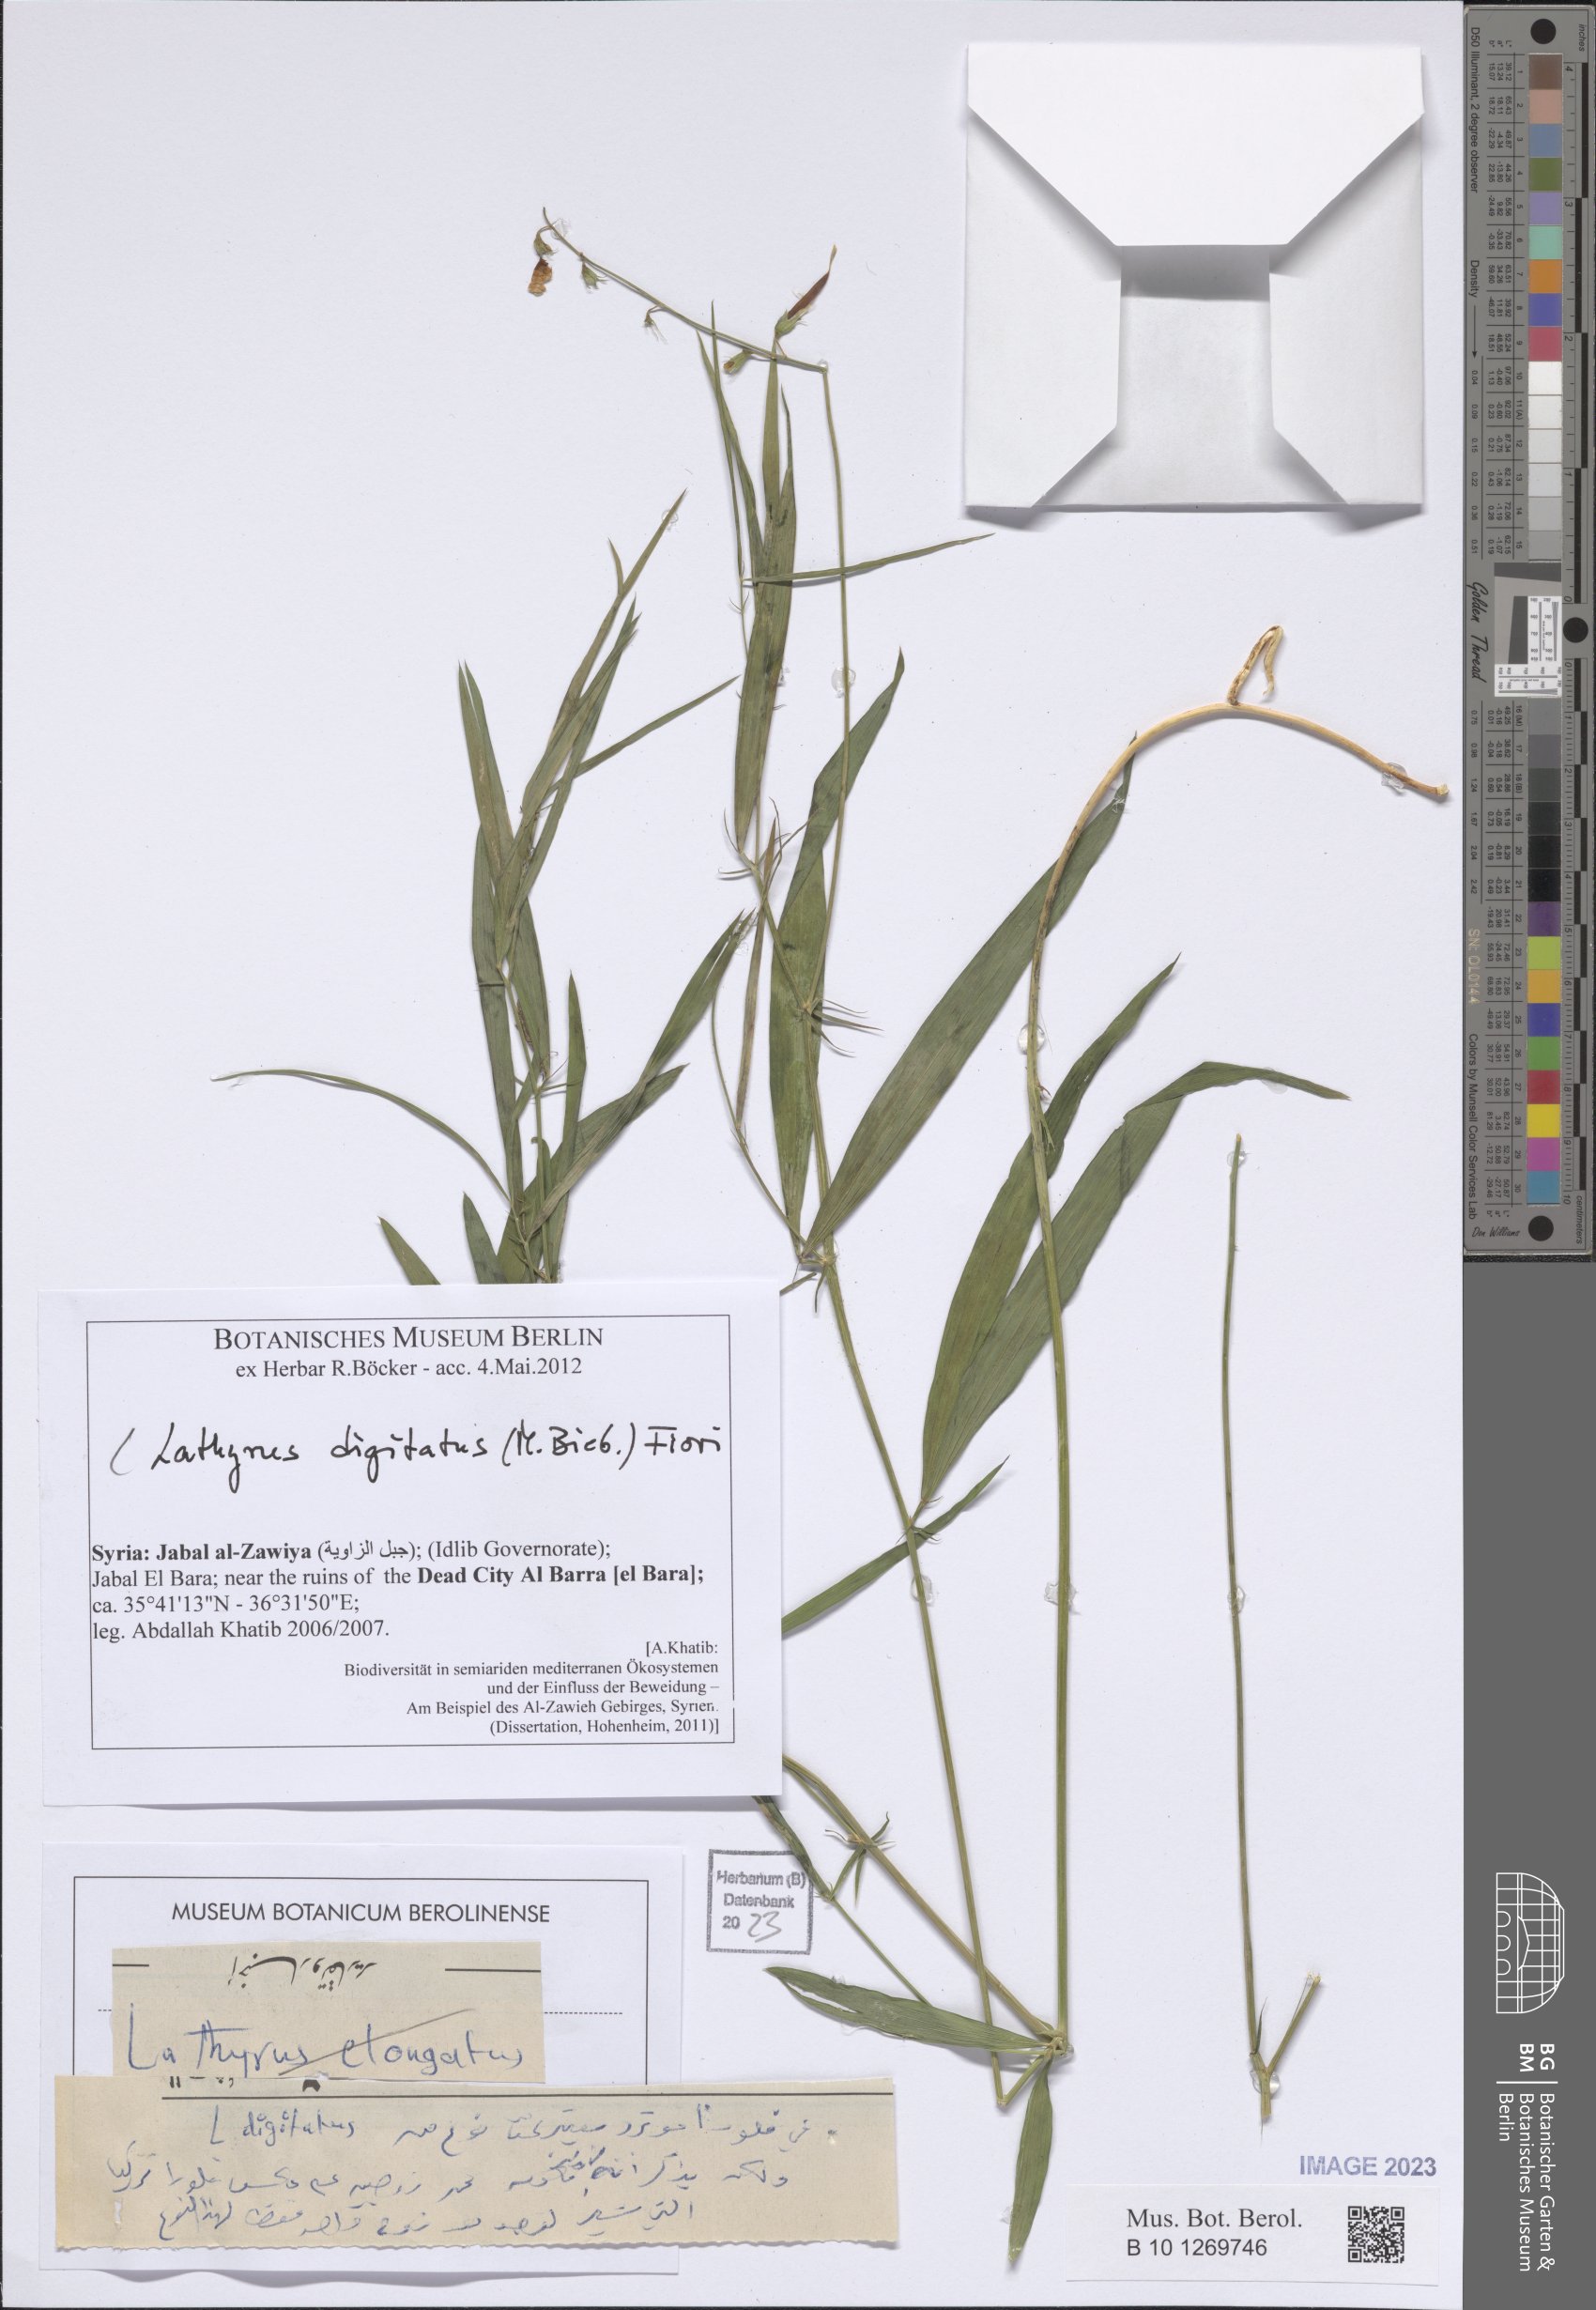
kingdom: Plantae
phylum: Tracheophyta
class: Magnoliopsida
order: Fabales
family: Fabaceae
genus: Lathyrus
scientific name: Lathyrus digitatus
